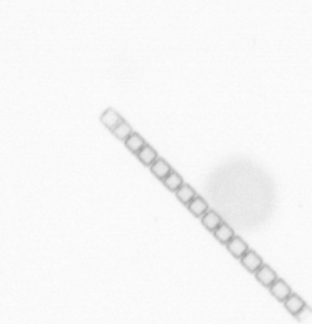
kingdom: Chromista
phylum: Ochrophyta
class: Bacillariophyceae
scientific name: Bacillariophyceae
